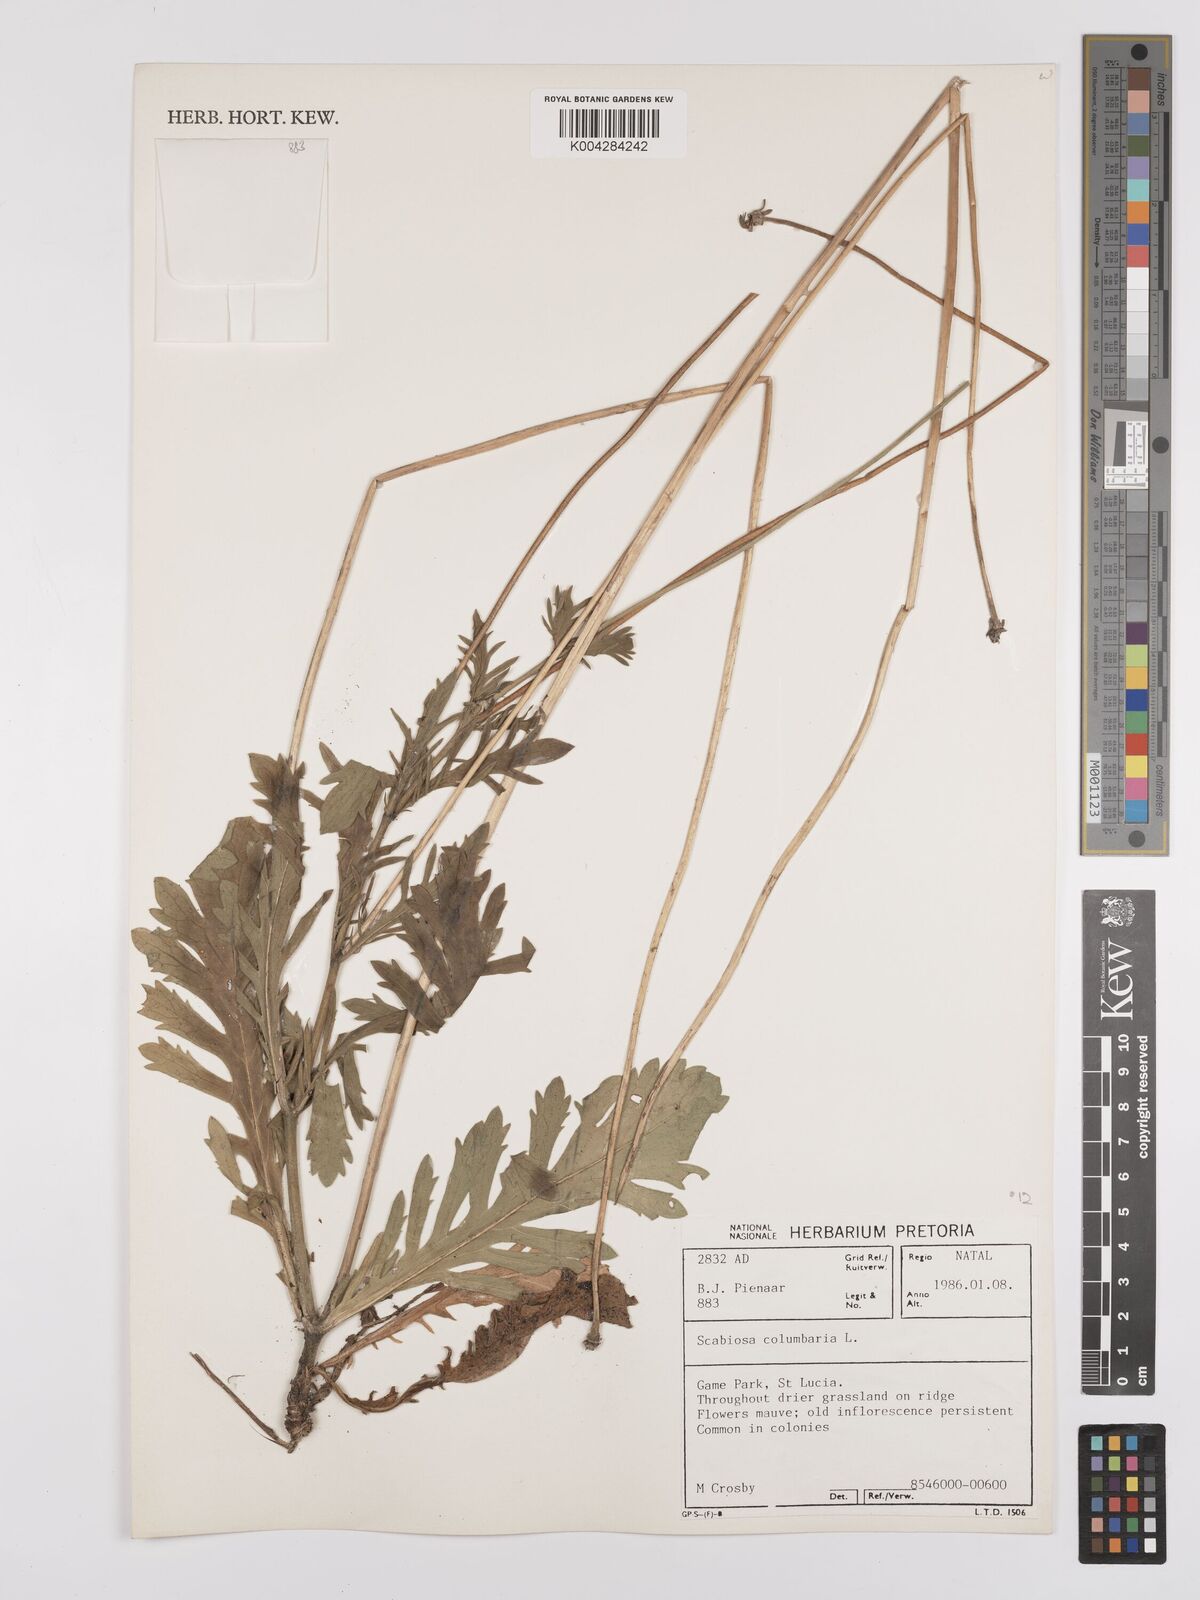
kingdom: Plantae
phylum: Tracheophyta
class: Magnoliopsida
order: Dipsacales
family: Caprifoliaceae
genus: Scabiosa
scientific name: Scabiosa columbaria
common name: Small scabious
